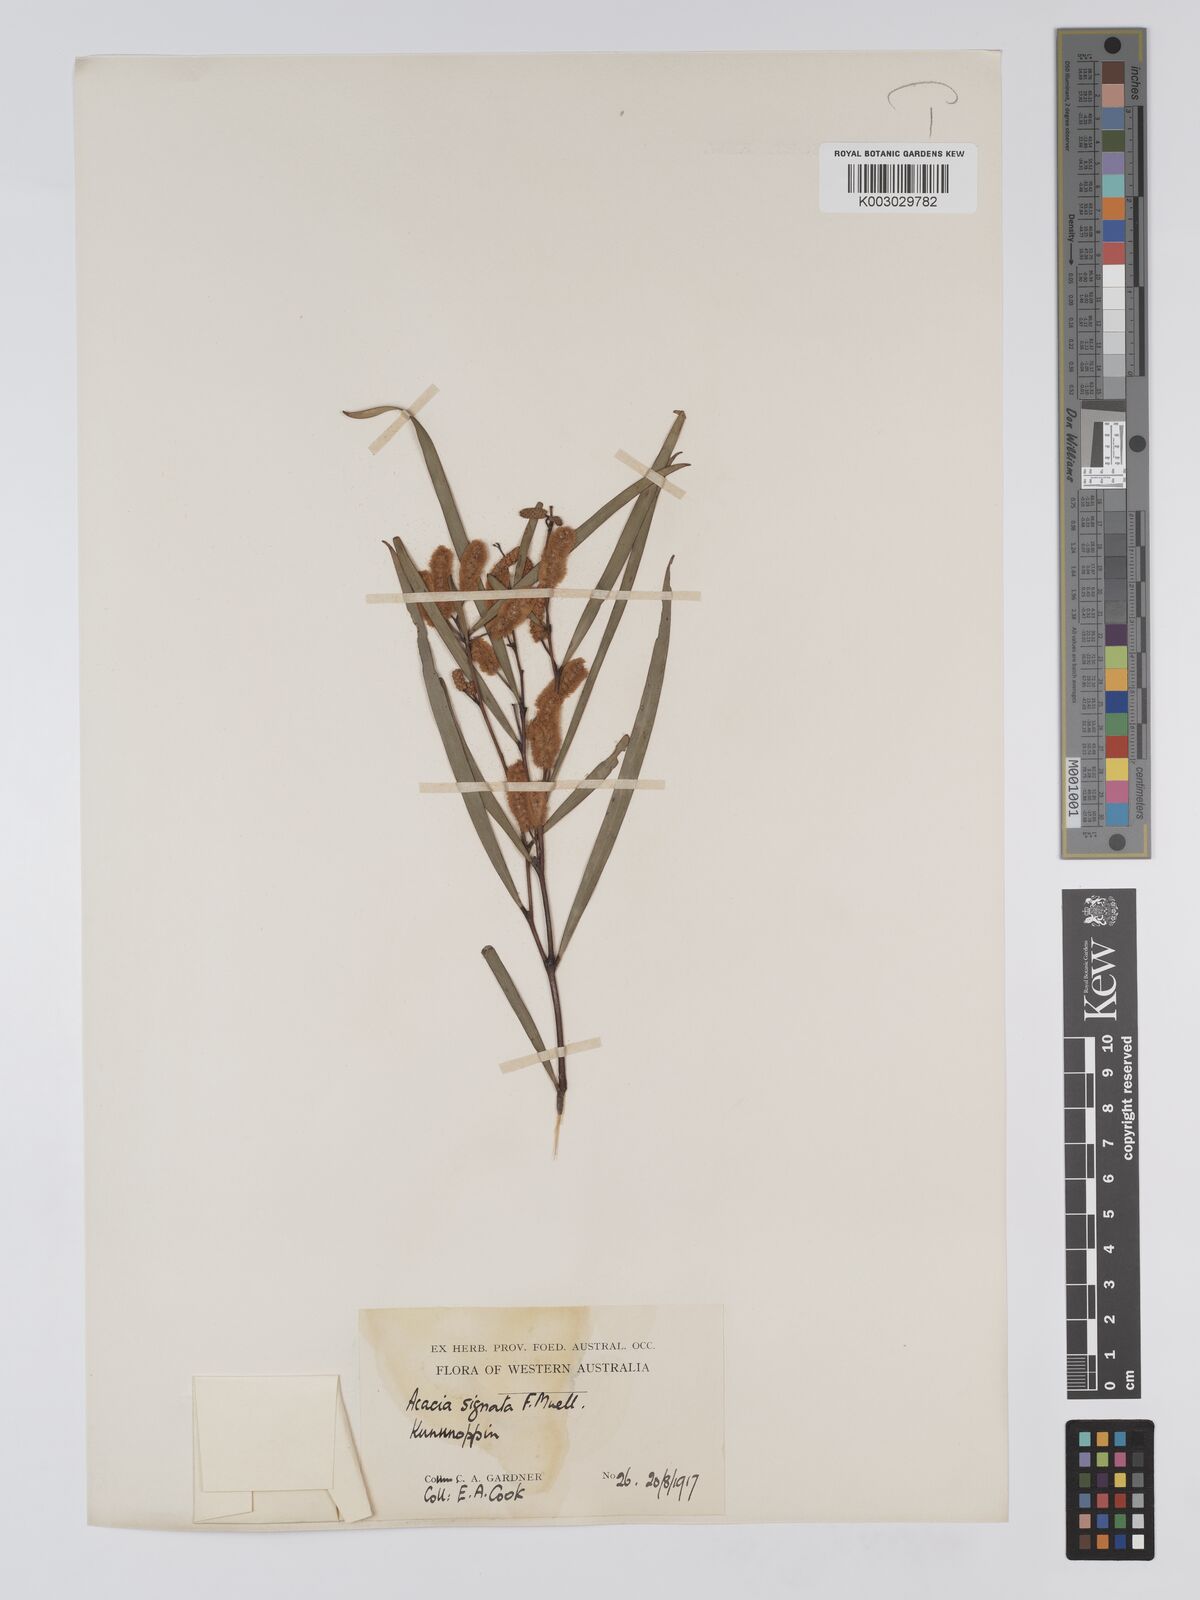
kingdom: Plantae
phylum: Tracheophyta
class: Magnoliopsida
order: Fabales
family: Fabaceae
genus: Acacia
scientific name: Acacia signata
